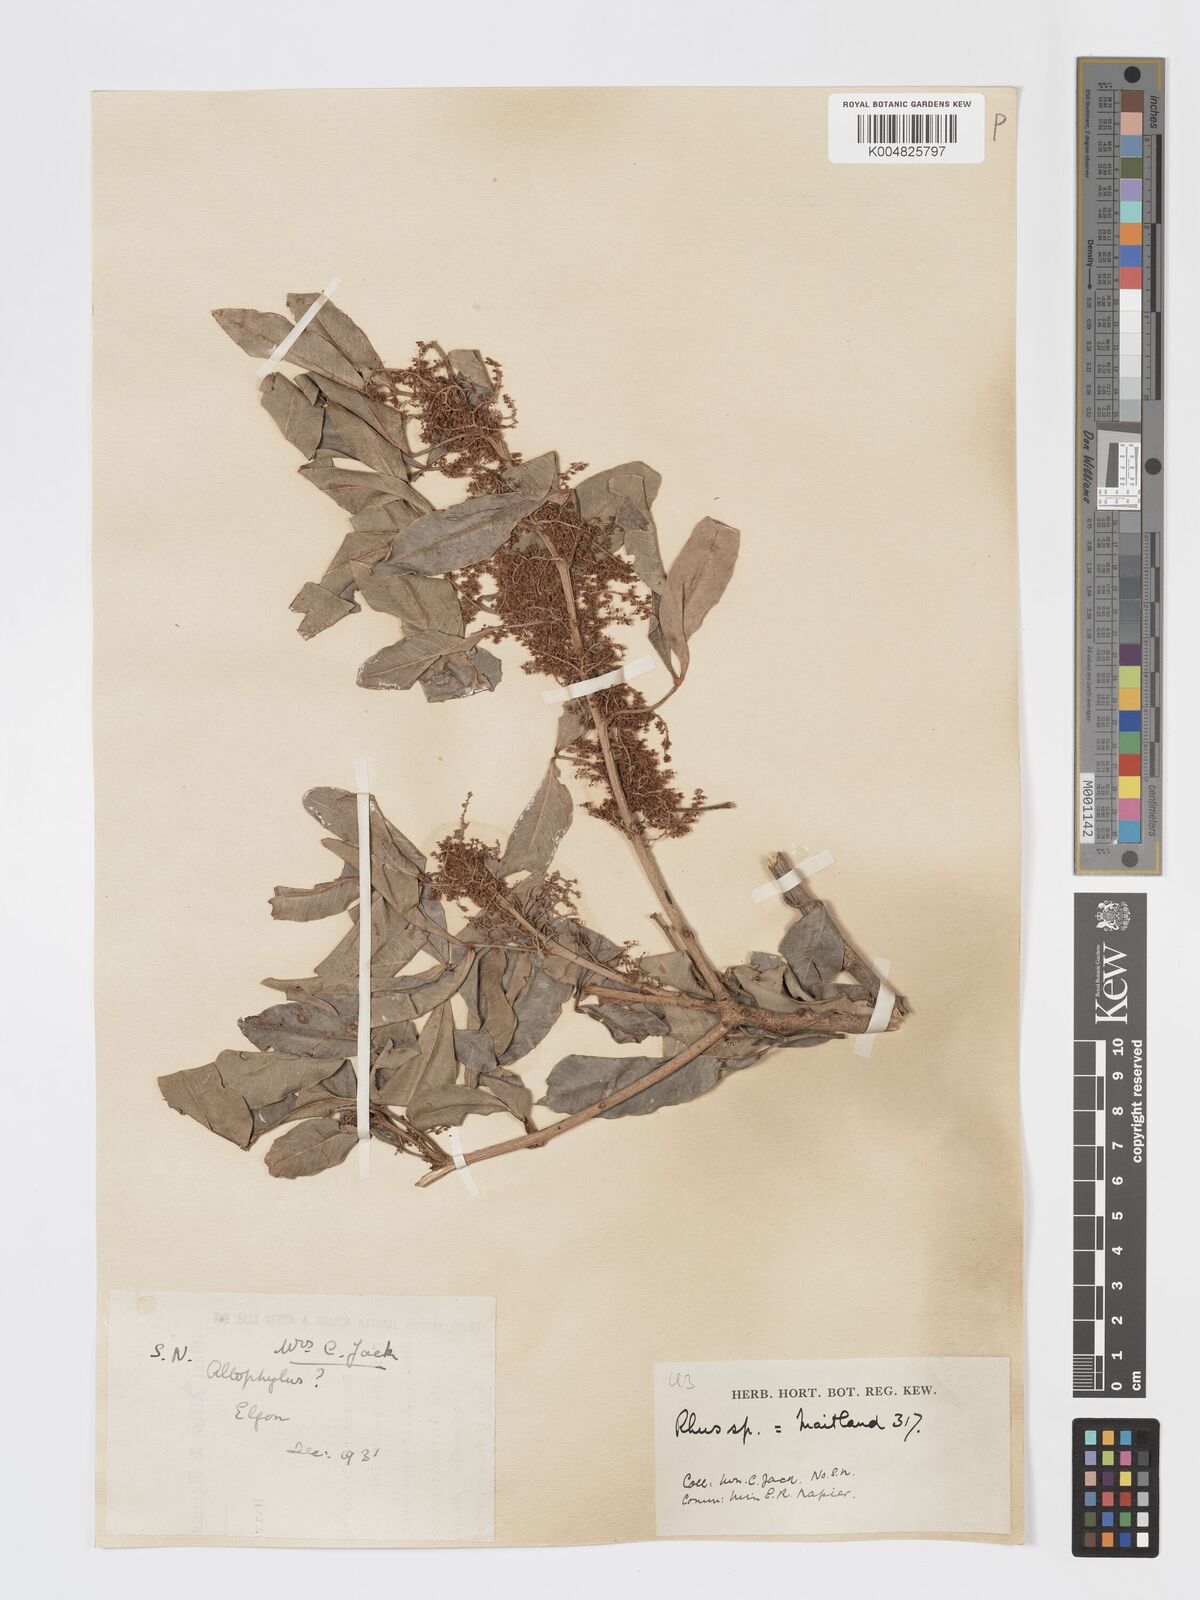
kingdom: Plantae
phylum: Tracheophyta
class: Magnoliopsida
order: Sapindales
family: Anacardiaceae
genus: Searsia
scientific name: Searsia natalensis
